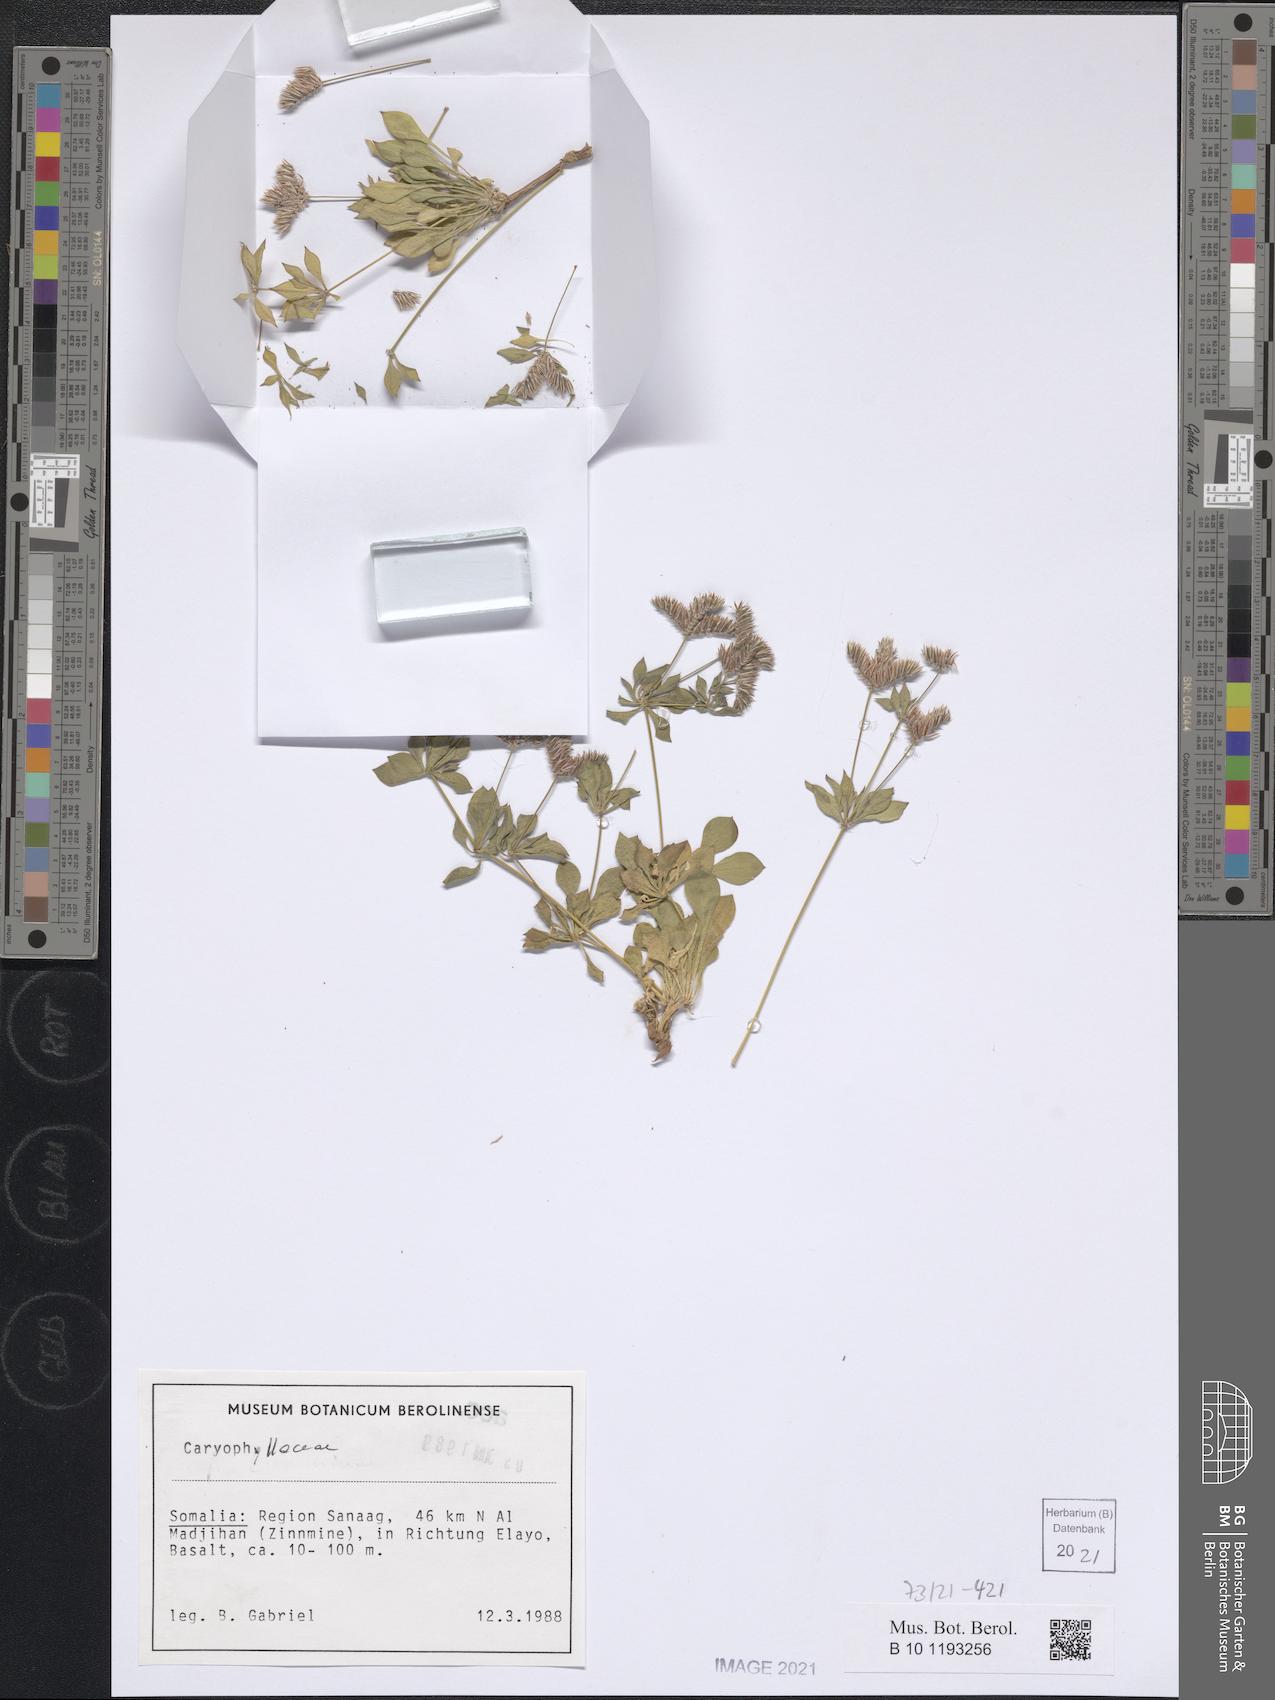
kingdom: Plantae
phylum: Tracheophyta
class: Magnoliopsida
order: Caryophyllales
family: Caryophyllaceae
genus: Polycarpaea
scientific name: Polycarpaea basaltica
